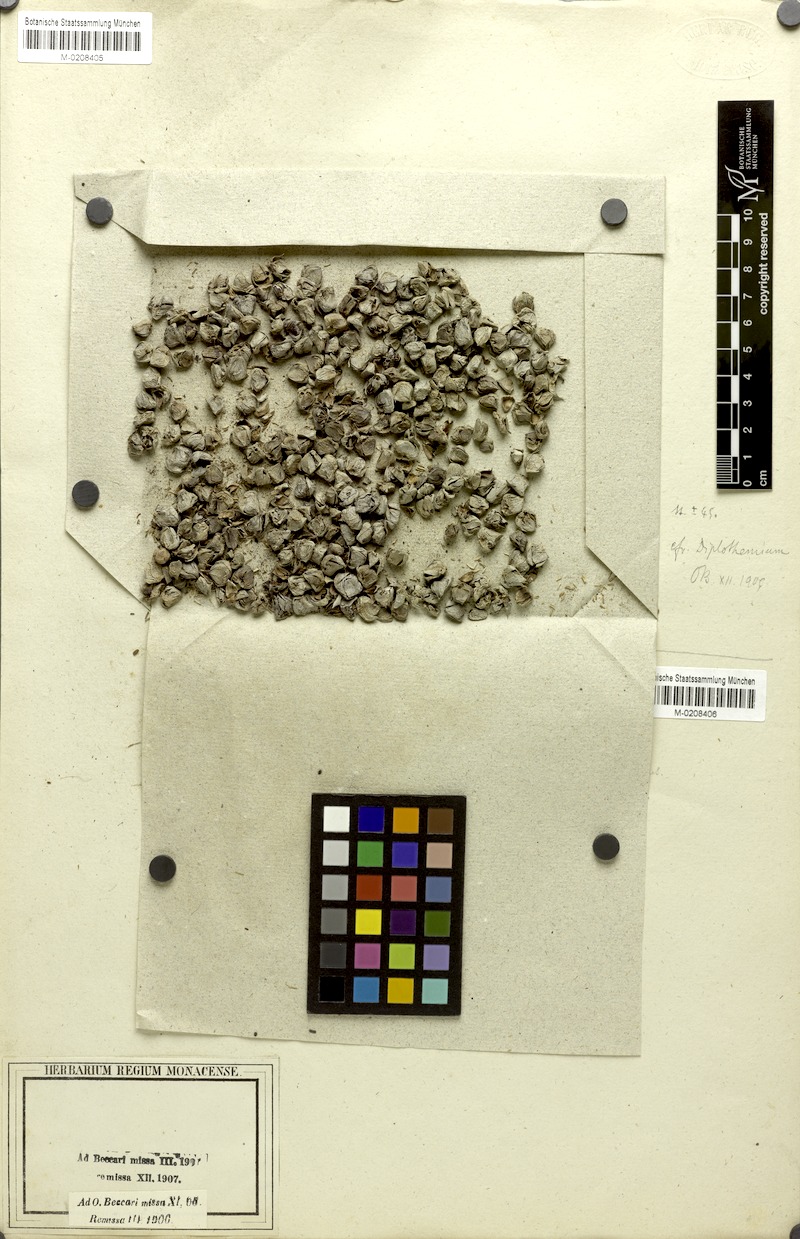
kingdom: Plantae
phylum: Tracheophyta
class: Liliopsida
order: Arecales
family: Arecaceae
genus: Sabal
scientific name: Sabal minor
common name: Dwarf palmetto
